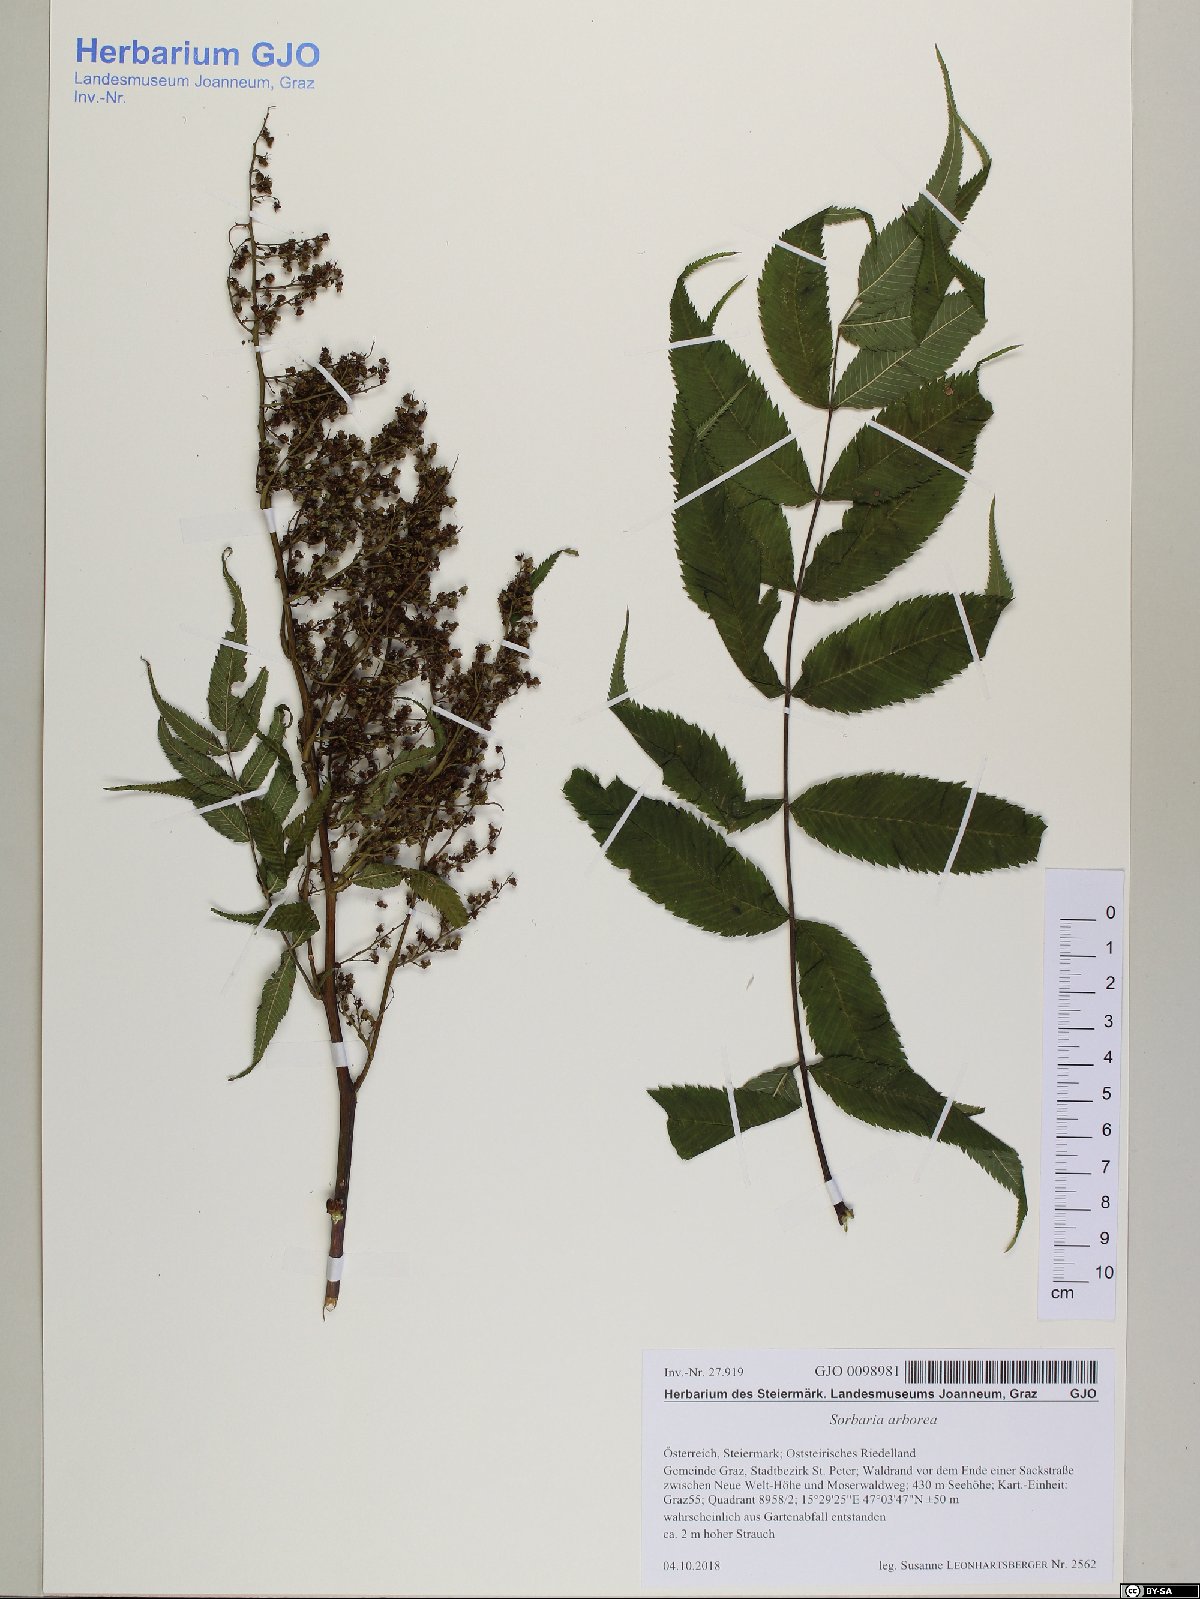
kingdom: Plantae
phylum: Tracheophyta
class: Magnoliopsida
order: Rosales
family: Rosaceae
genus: Sorbaria
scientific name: Sorbaria kirilowii
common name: Chinese sorbaria
